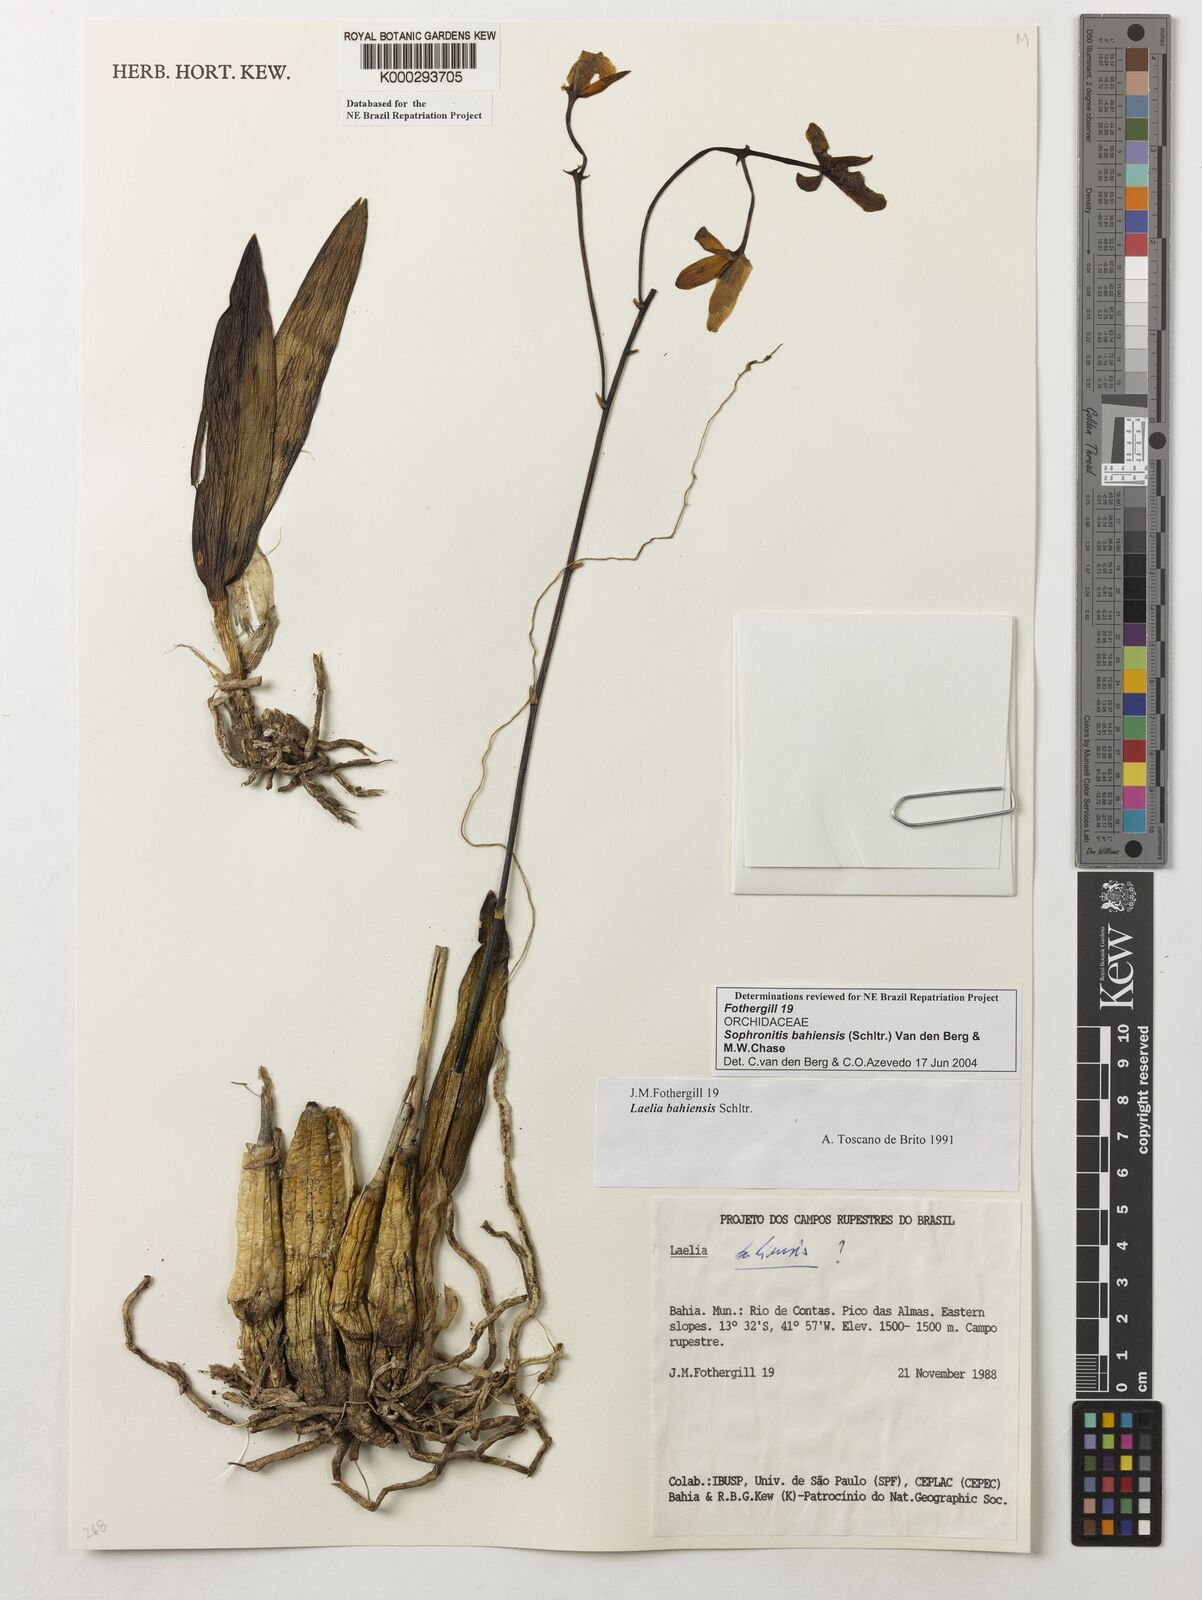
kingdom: Plantae
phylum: Tracheophyta
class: Liliopsida
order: Asparagales
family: Orchidaceae
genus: Cattleya
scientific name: Cattleya luetzelburgii
